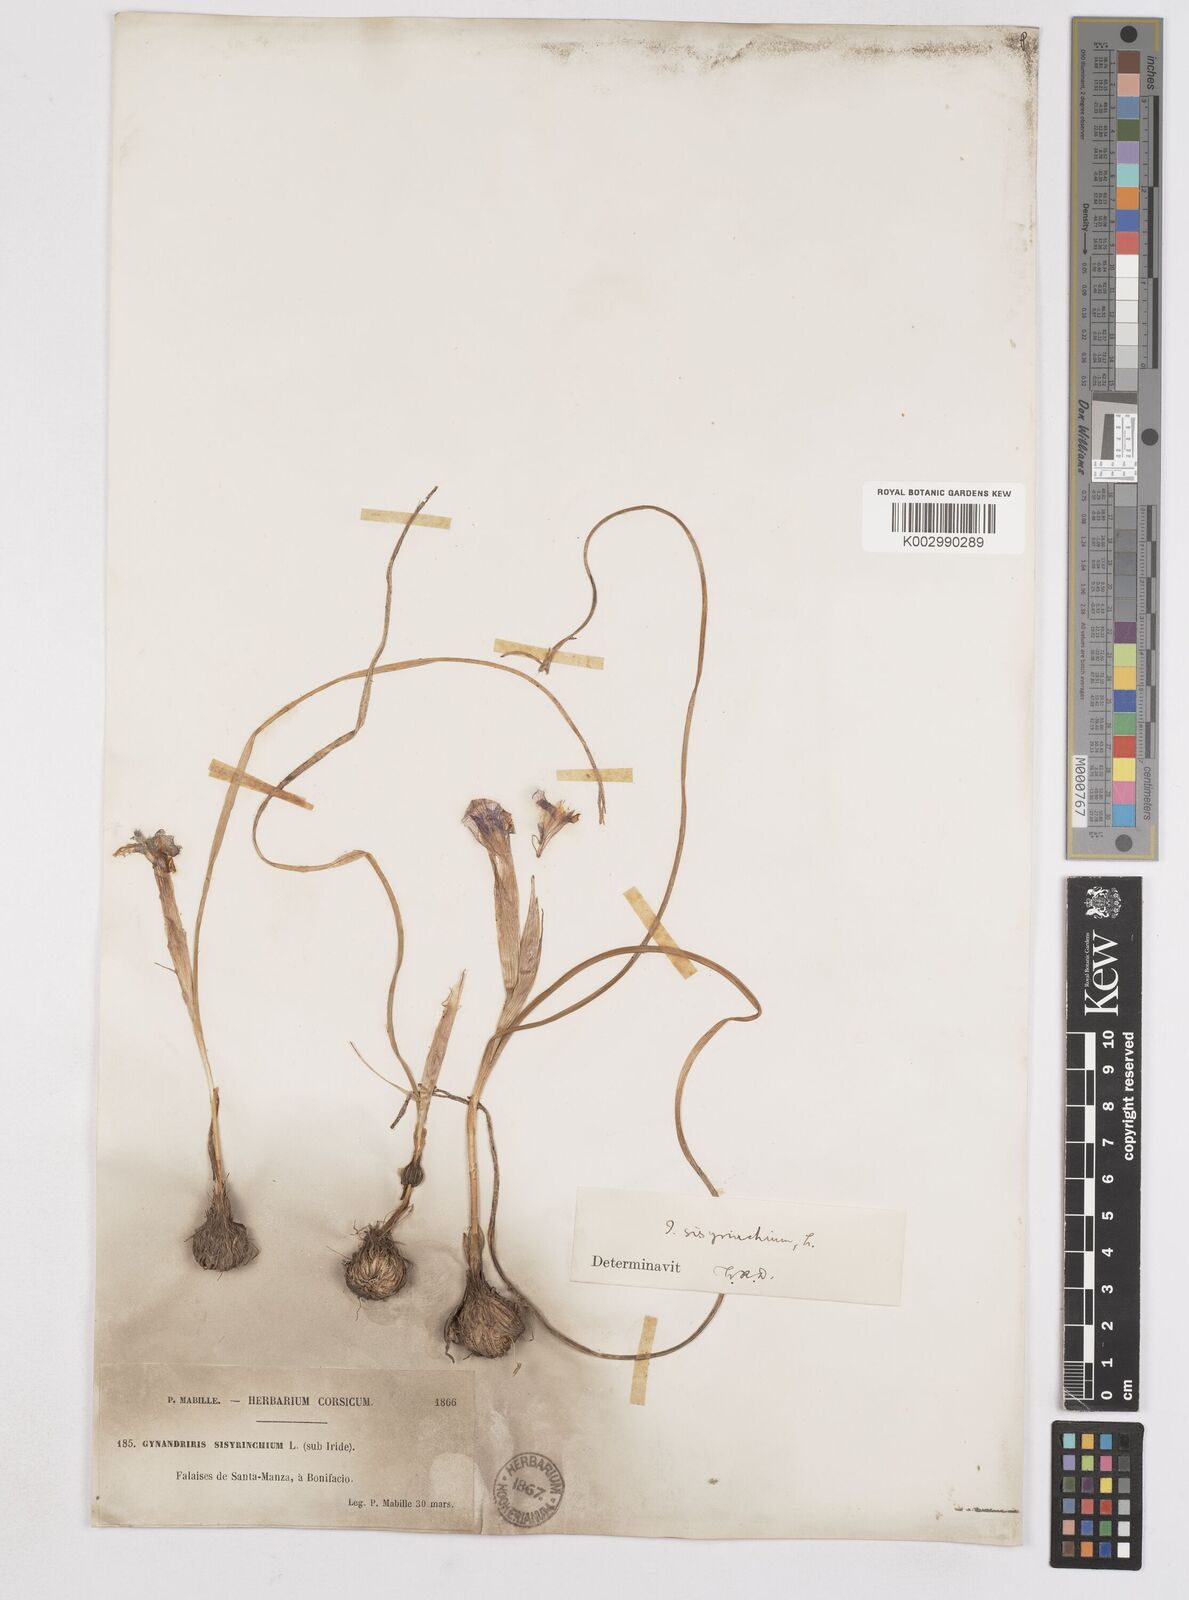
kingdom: Plantae
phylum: Tracheophyta
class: Liliopsida
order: Asparagales
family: Iridaceae
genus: Moraea
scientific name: Moraea sisyrinchium
